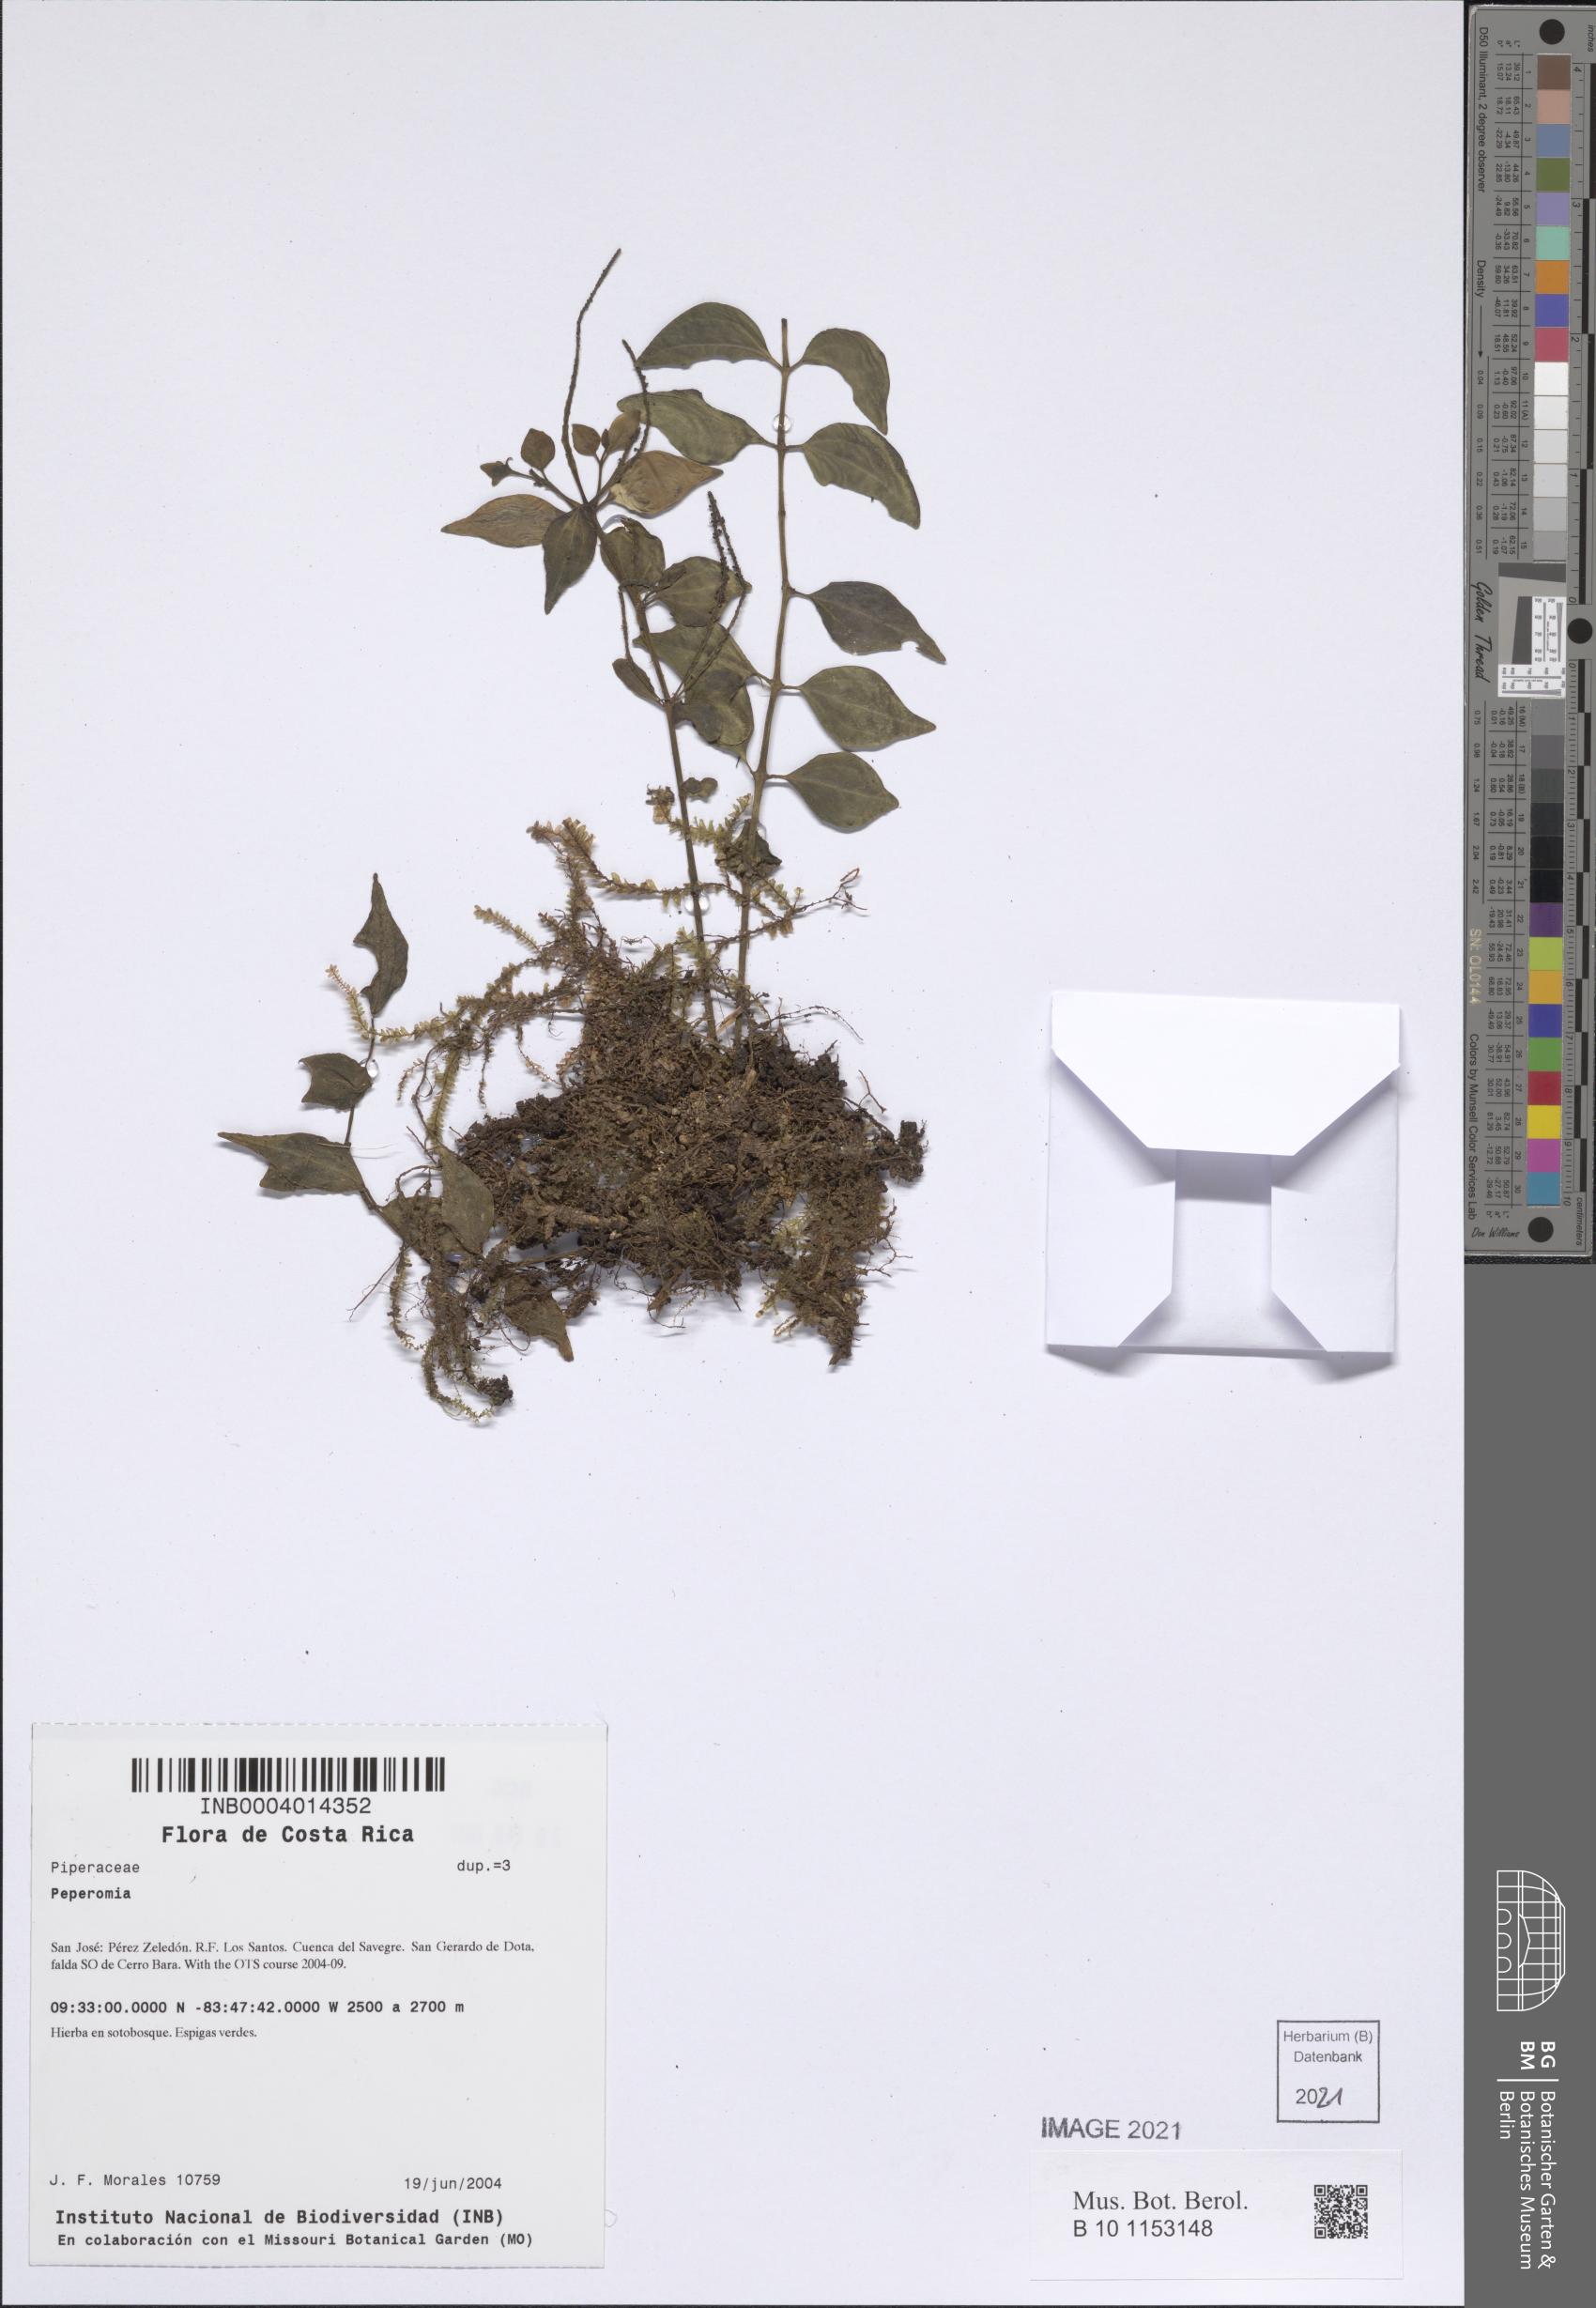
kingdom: Plantae
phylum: Tracheophyta
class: Magnoliopsida
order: Piperales
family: Piperaceae
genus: Peperomia
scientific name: Peperomia
